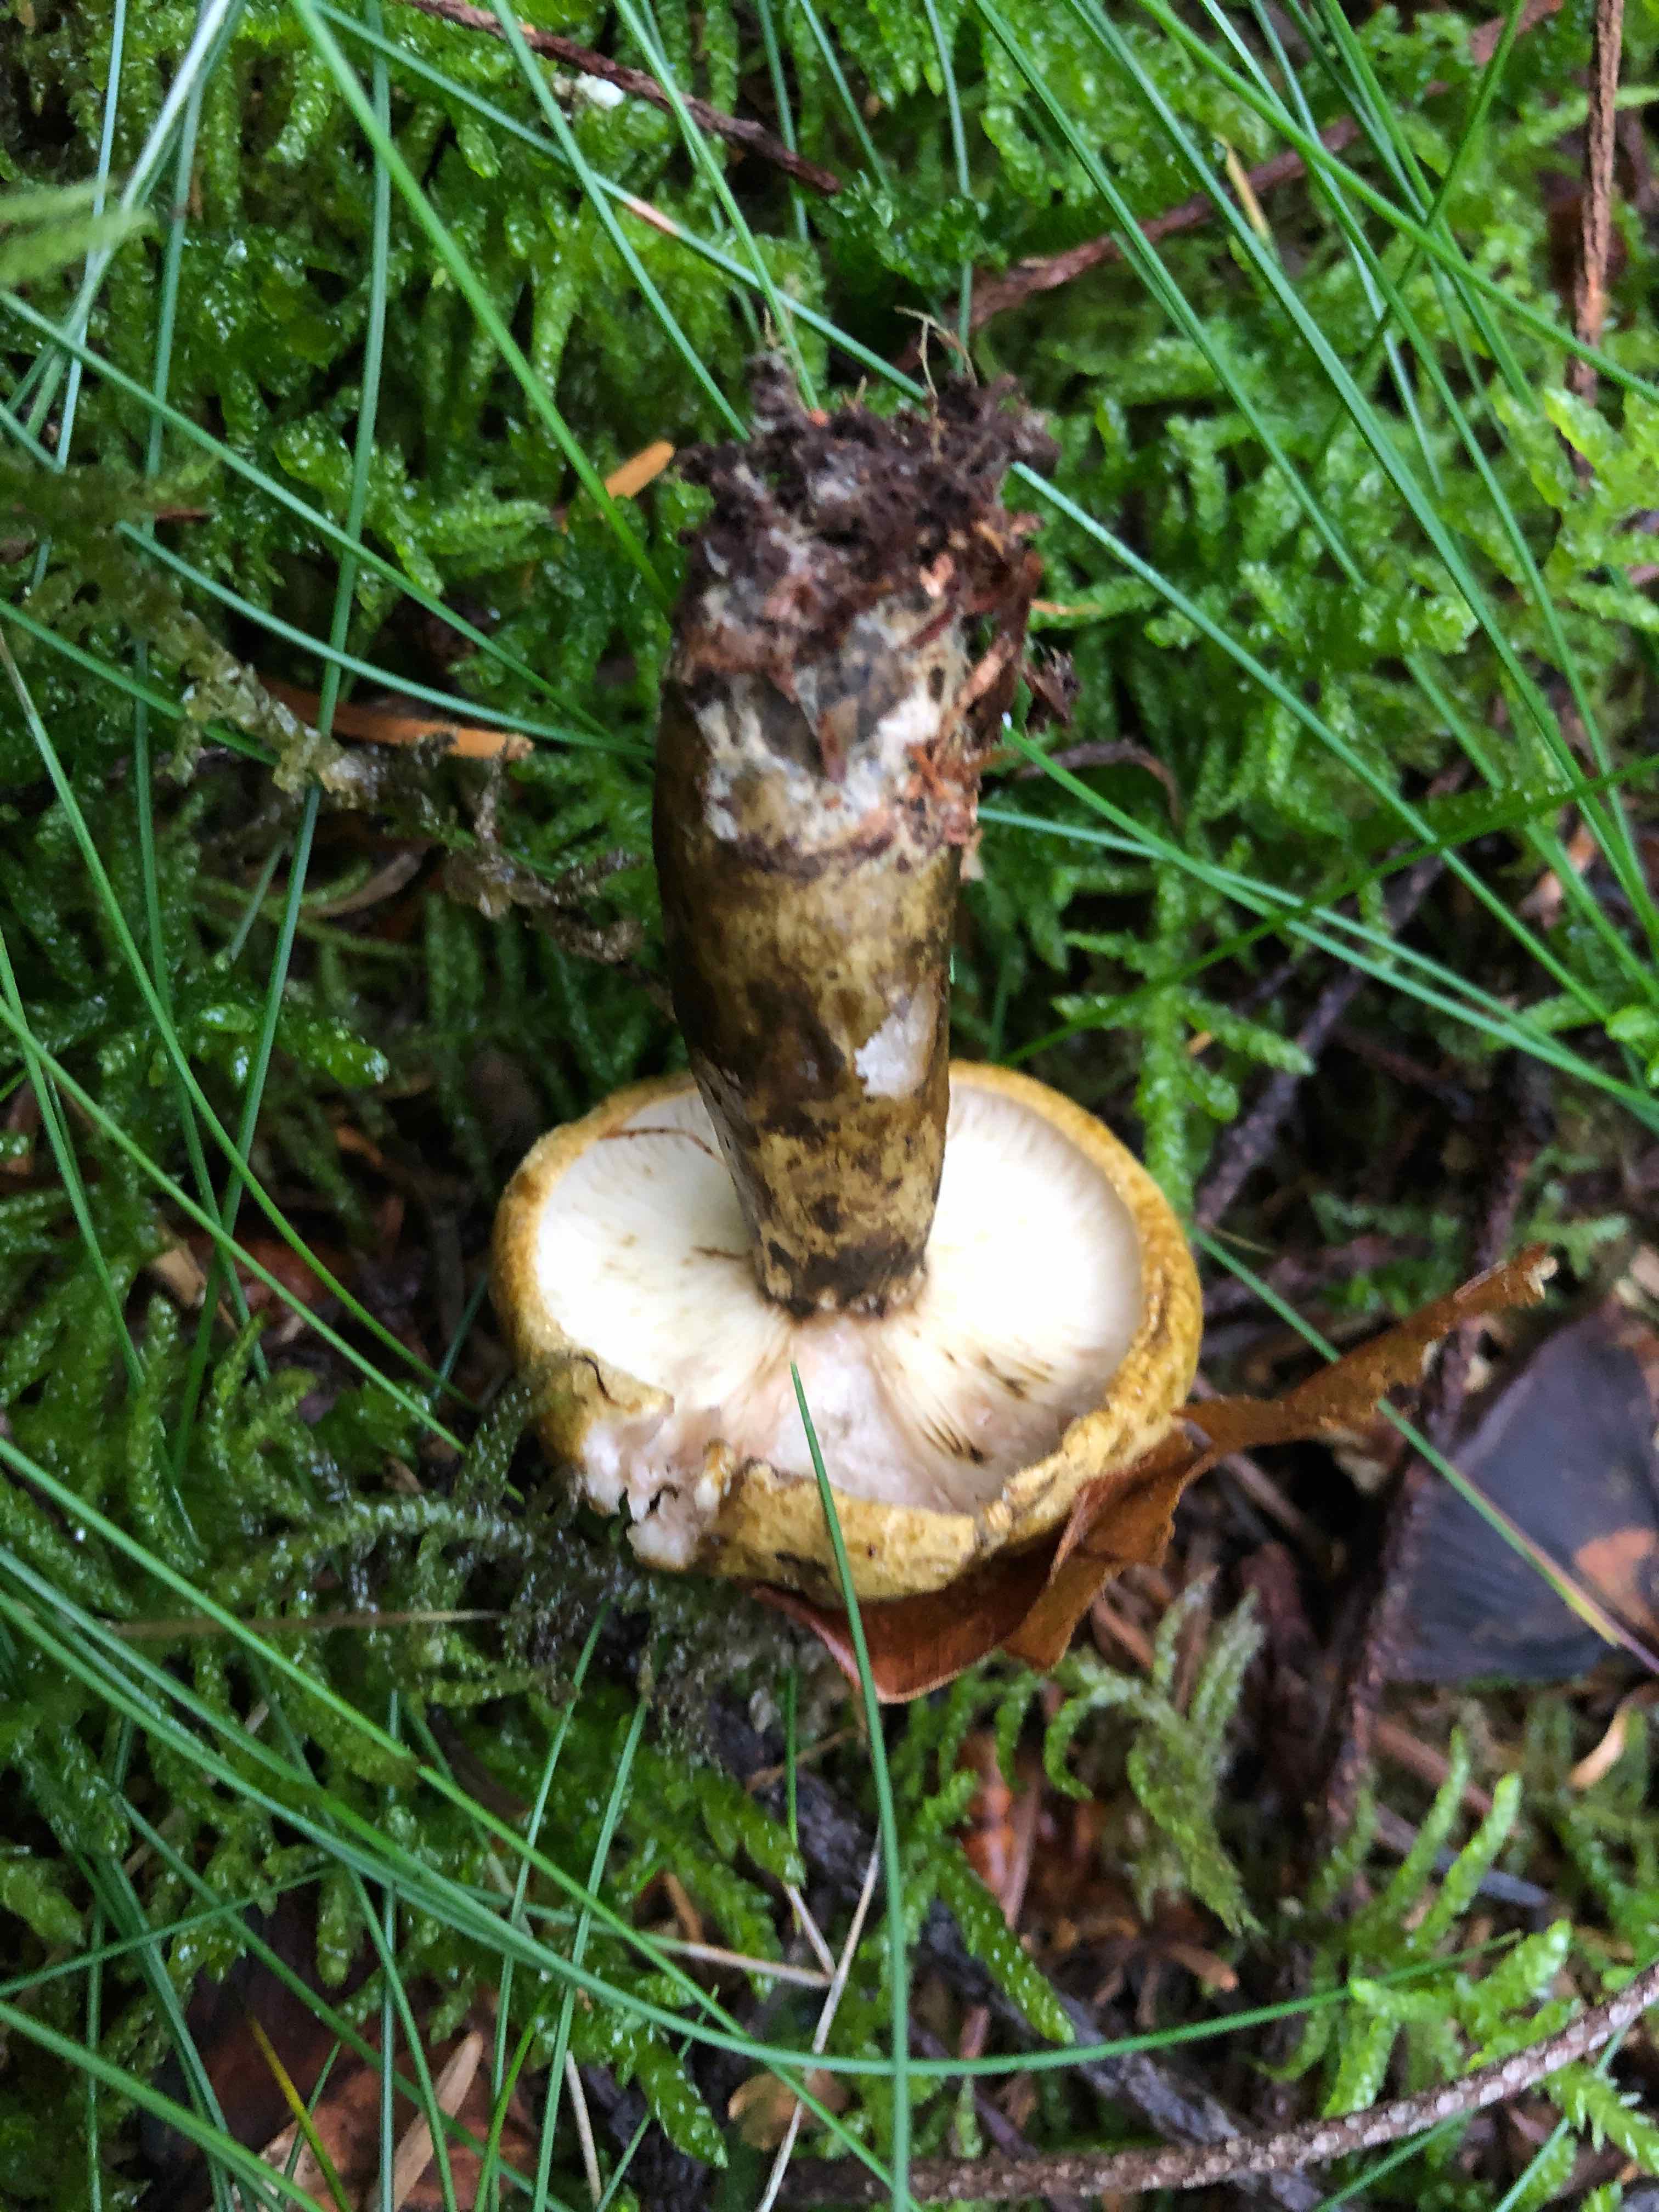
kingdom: Fungi
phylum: Basidiomycota
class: Agaricomycetes
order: Russulales
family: Russulaceae
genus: Lactarius
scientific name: Lactarius necator
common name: manddraber-mælkehat
